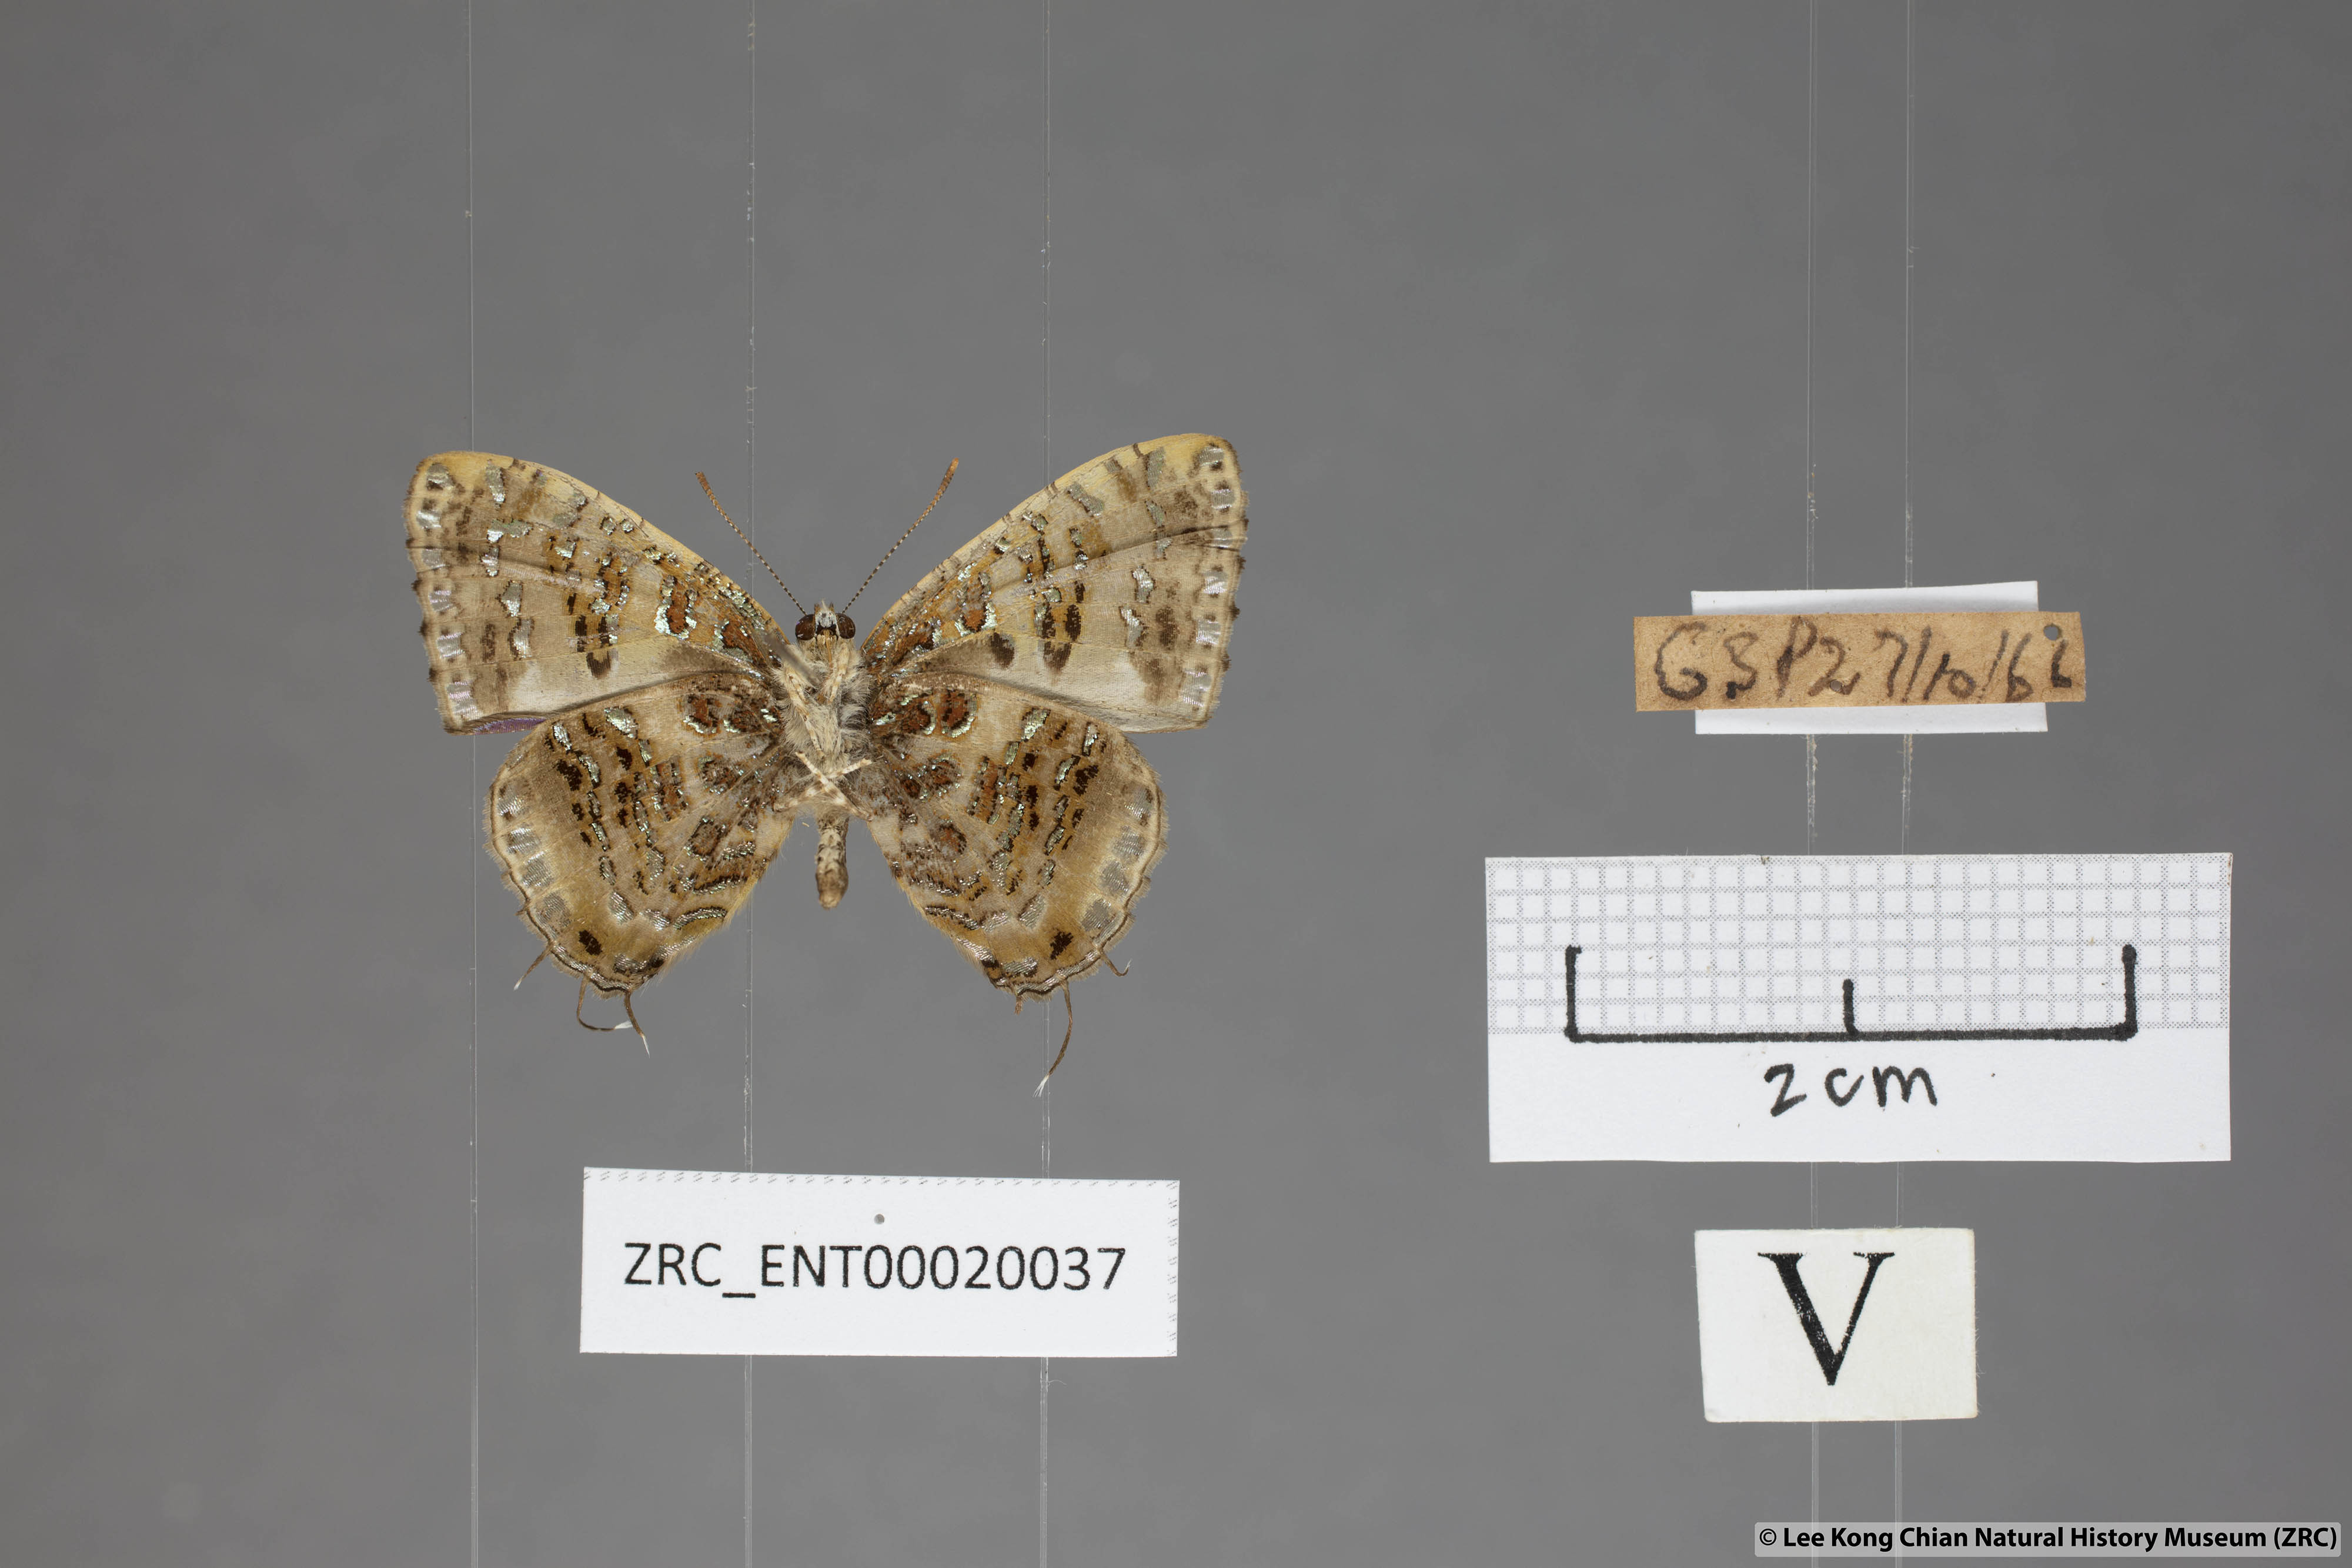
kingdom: Animalia
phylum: Arthropoda
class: Insecta
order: Lepidoptera
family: Lycaenidae
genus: Catapaecilma
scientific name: Catapaecilma major
